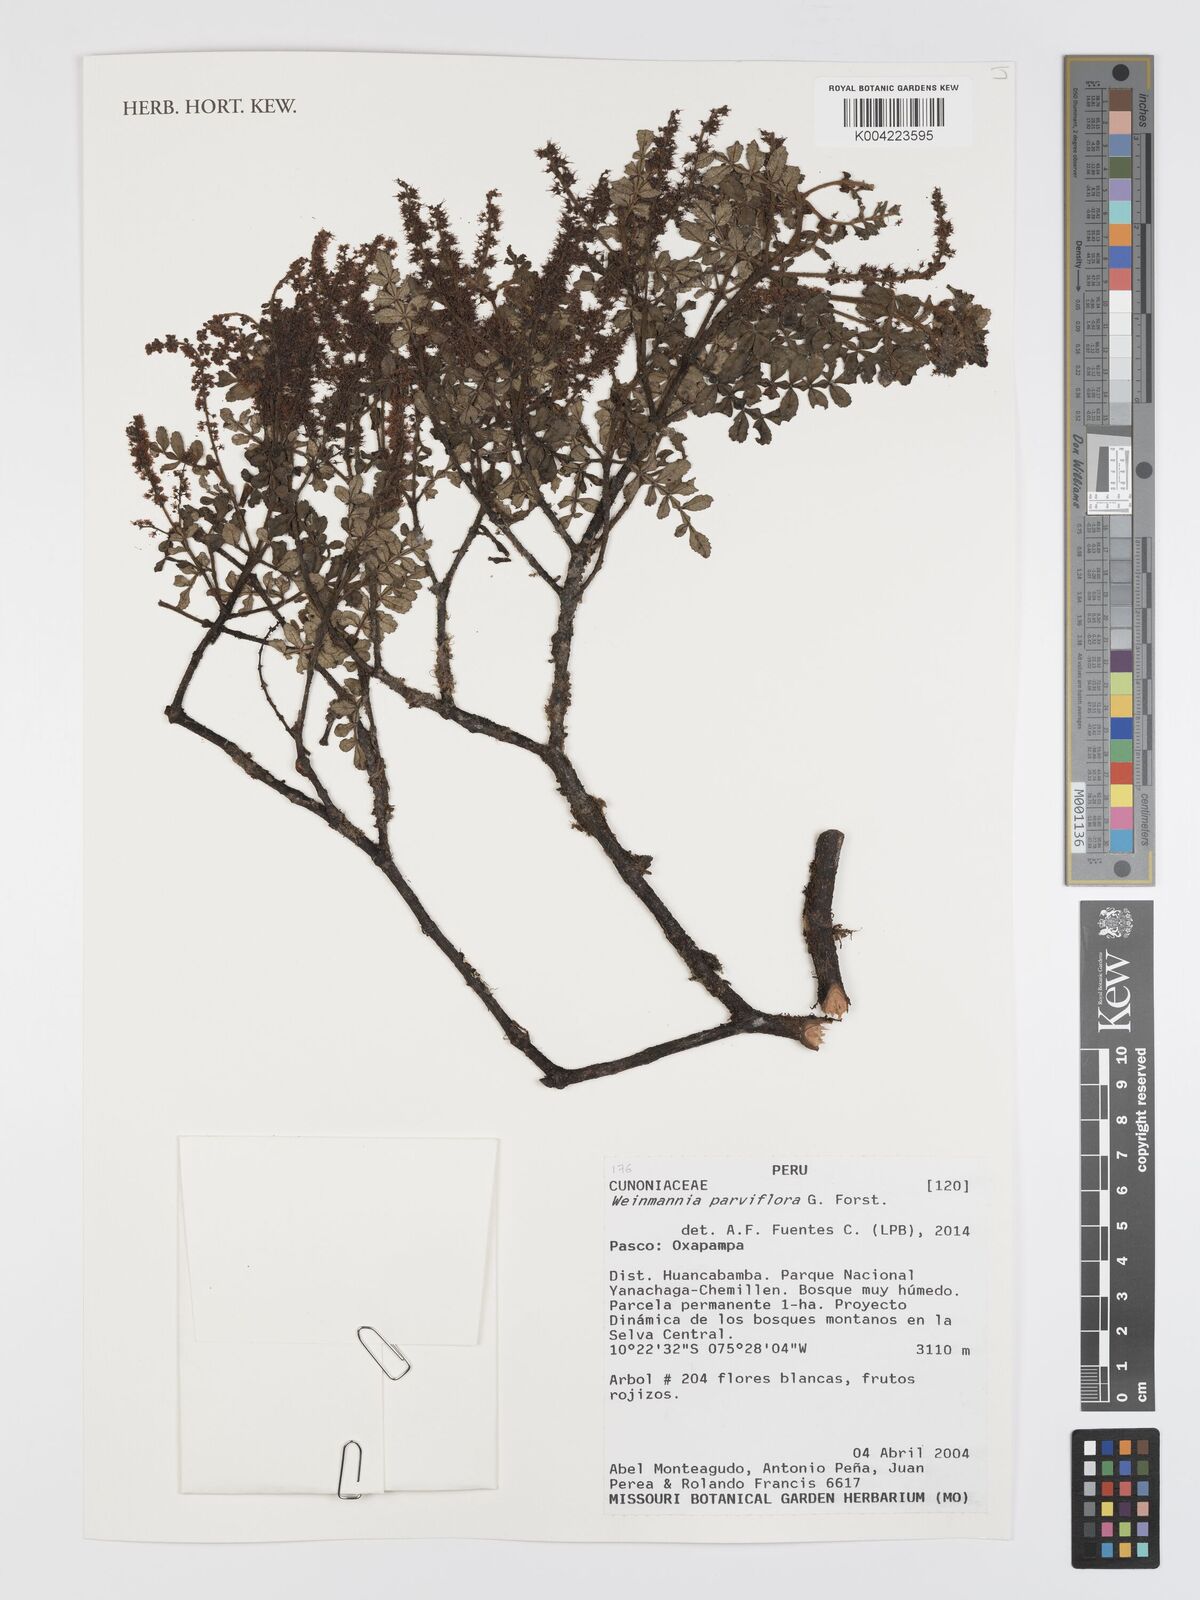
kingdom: Plantae
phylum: Tracheophyta
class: Magnoliopsida
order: Oxalidales
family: Cunoniaceae
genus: Weinmannia
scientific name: Weinmannia
